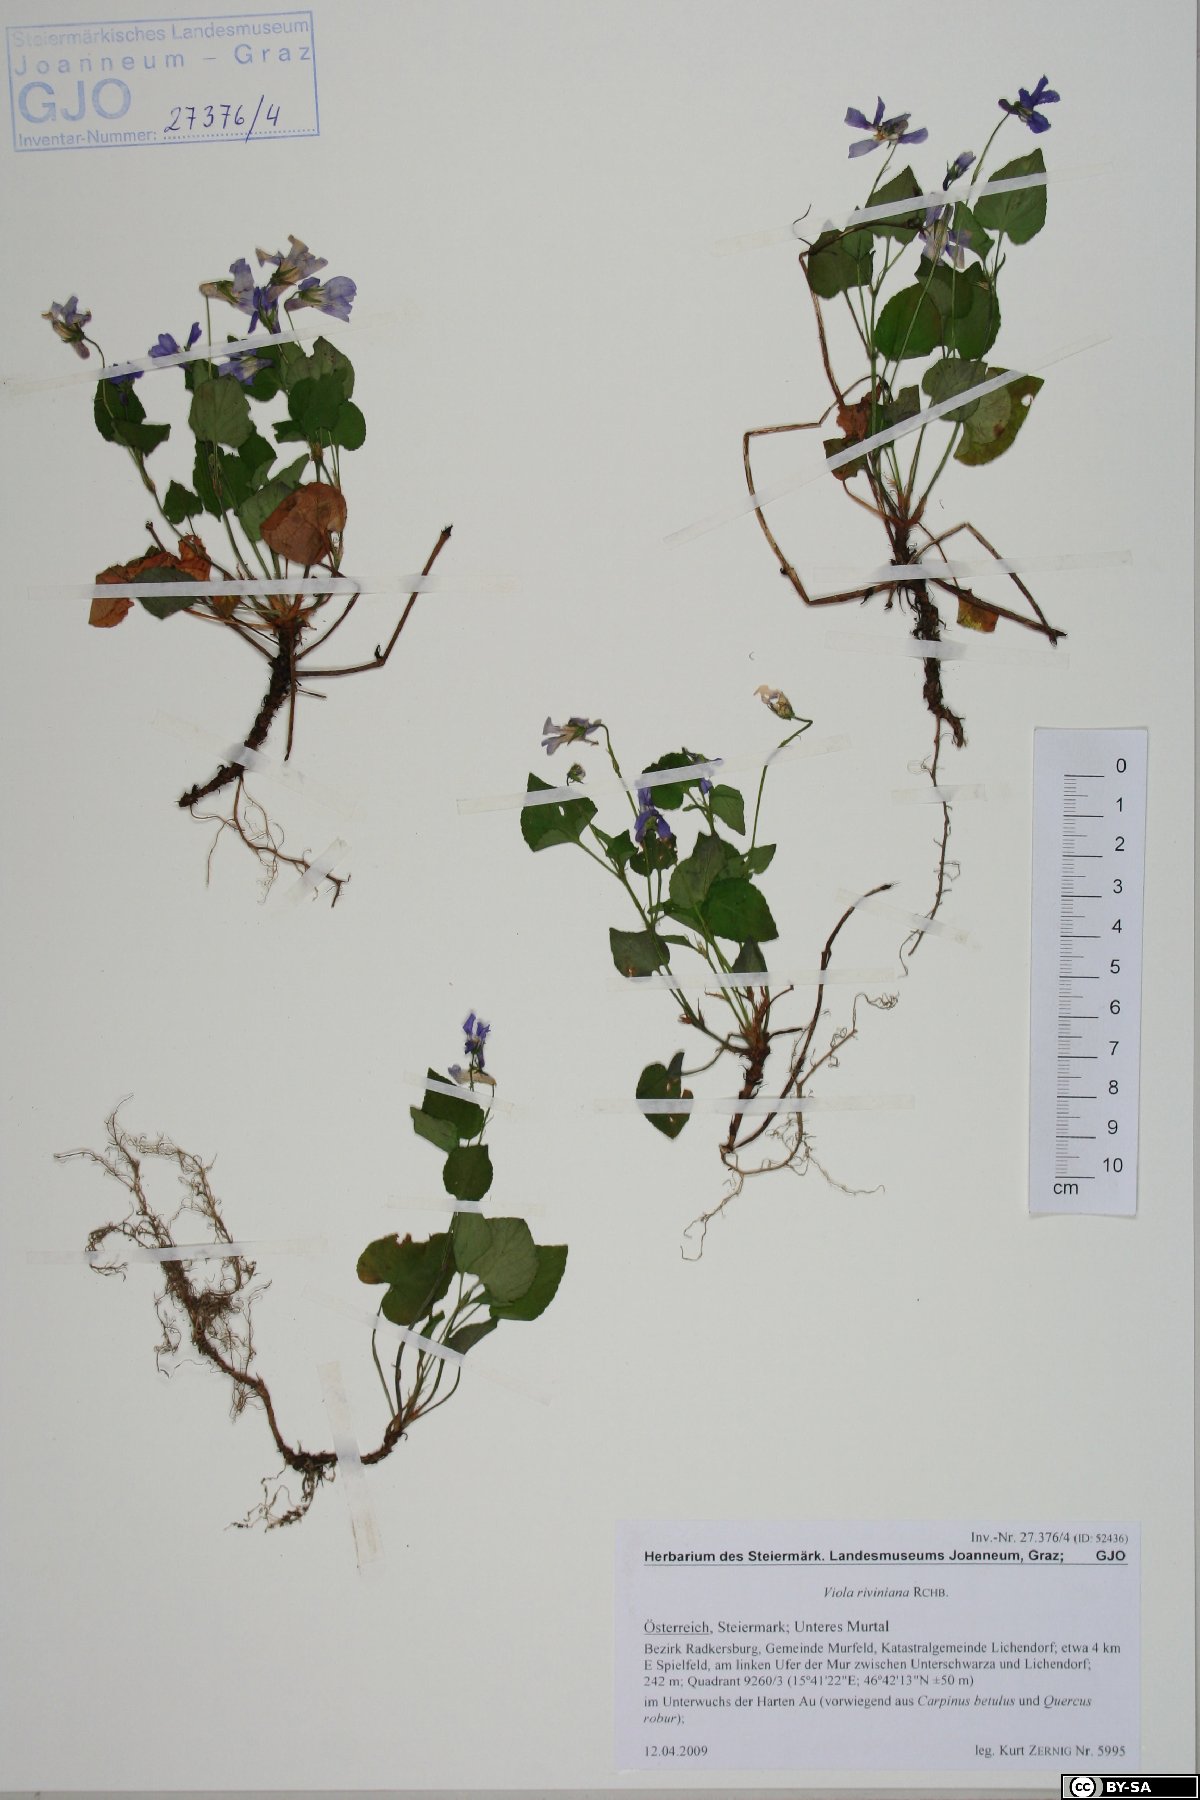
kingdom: Plantae
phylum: Tracheophyta
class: Magnoliopsida
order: Malpighiales
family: Violaceae
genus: Viola
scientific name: Viola riviniana
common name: Common dog-violet
